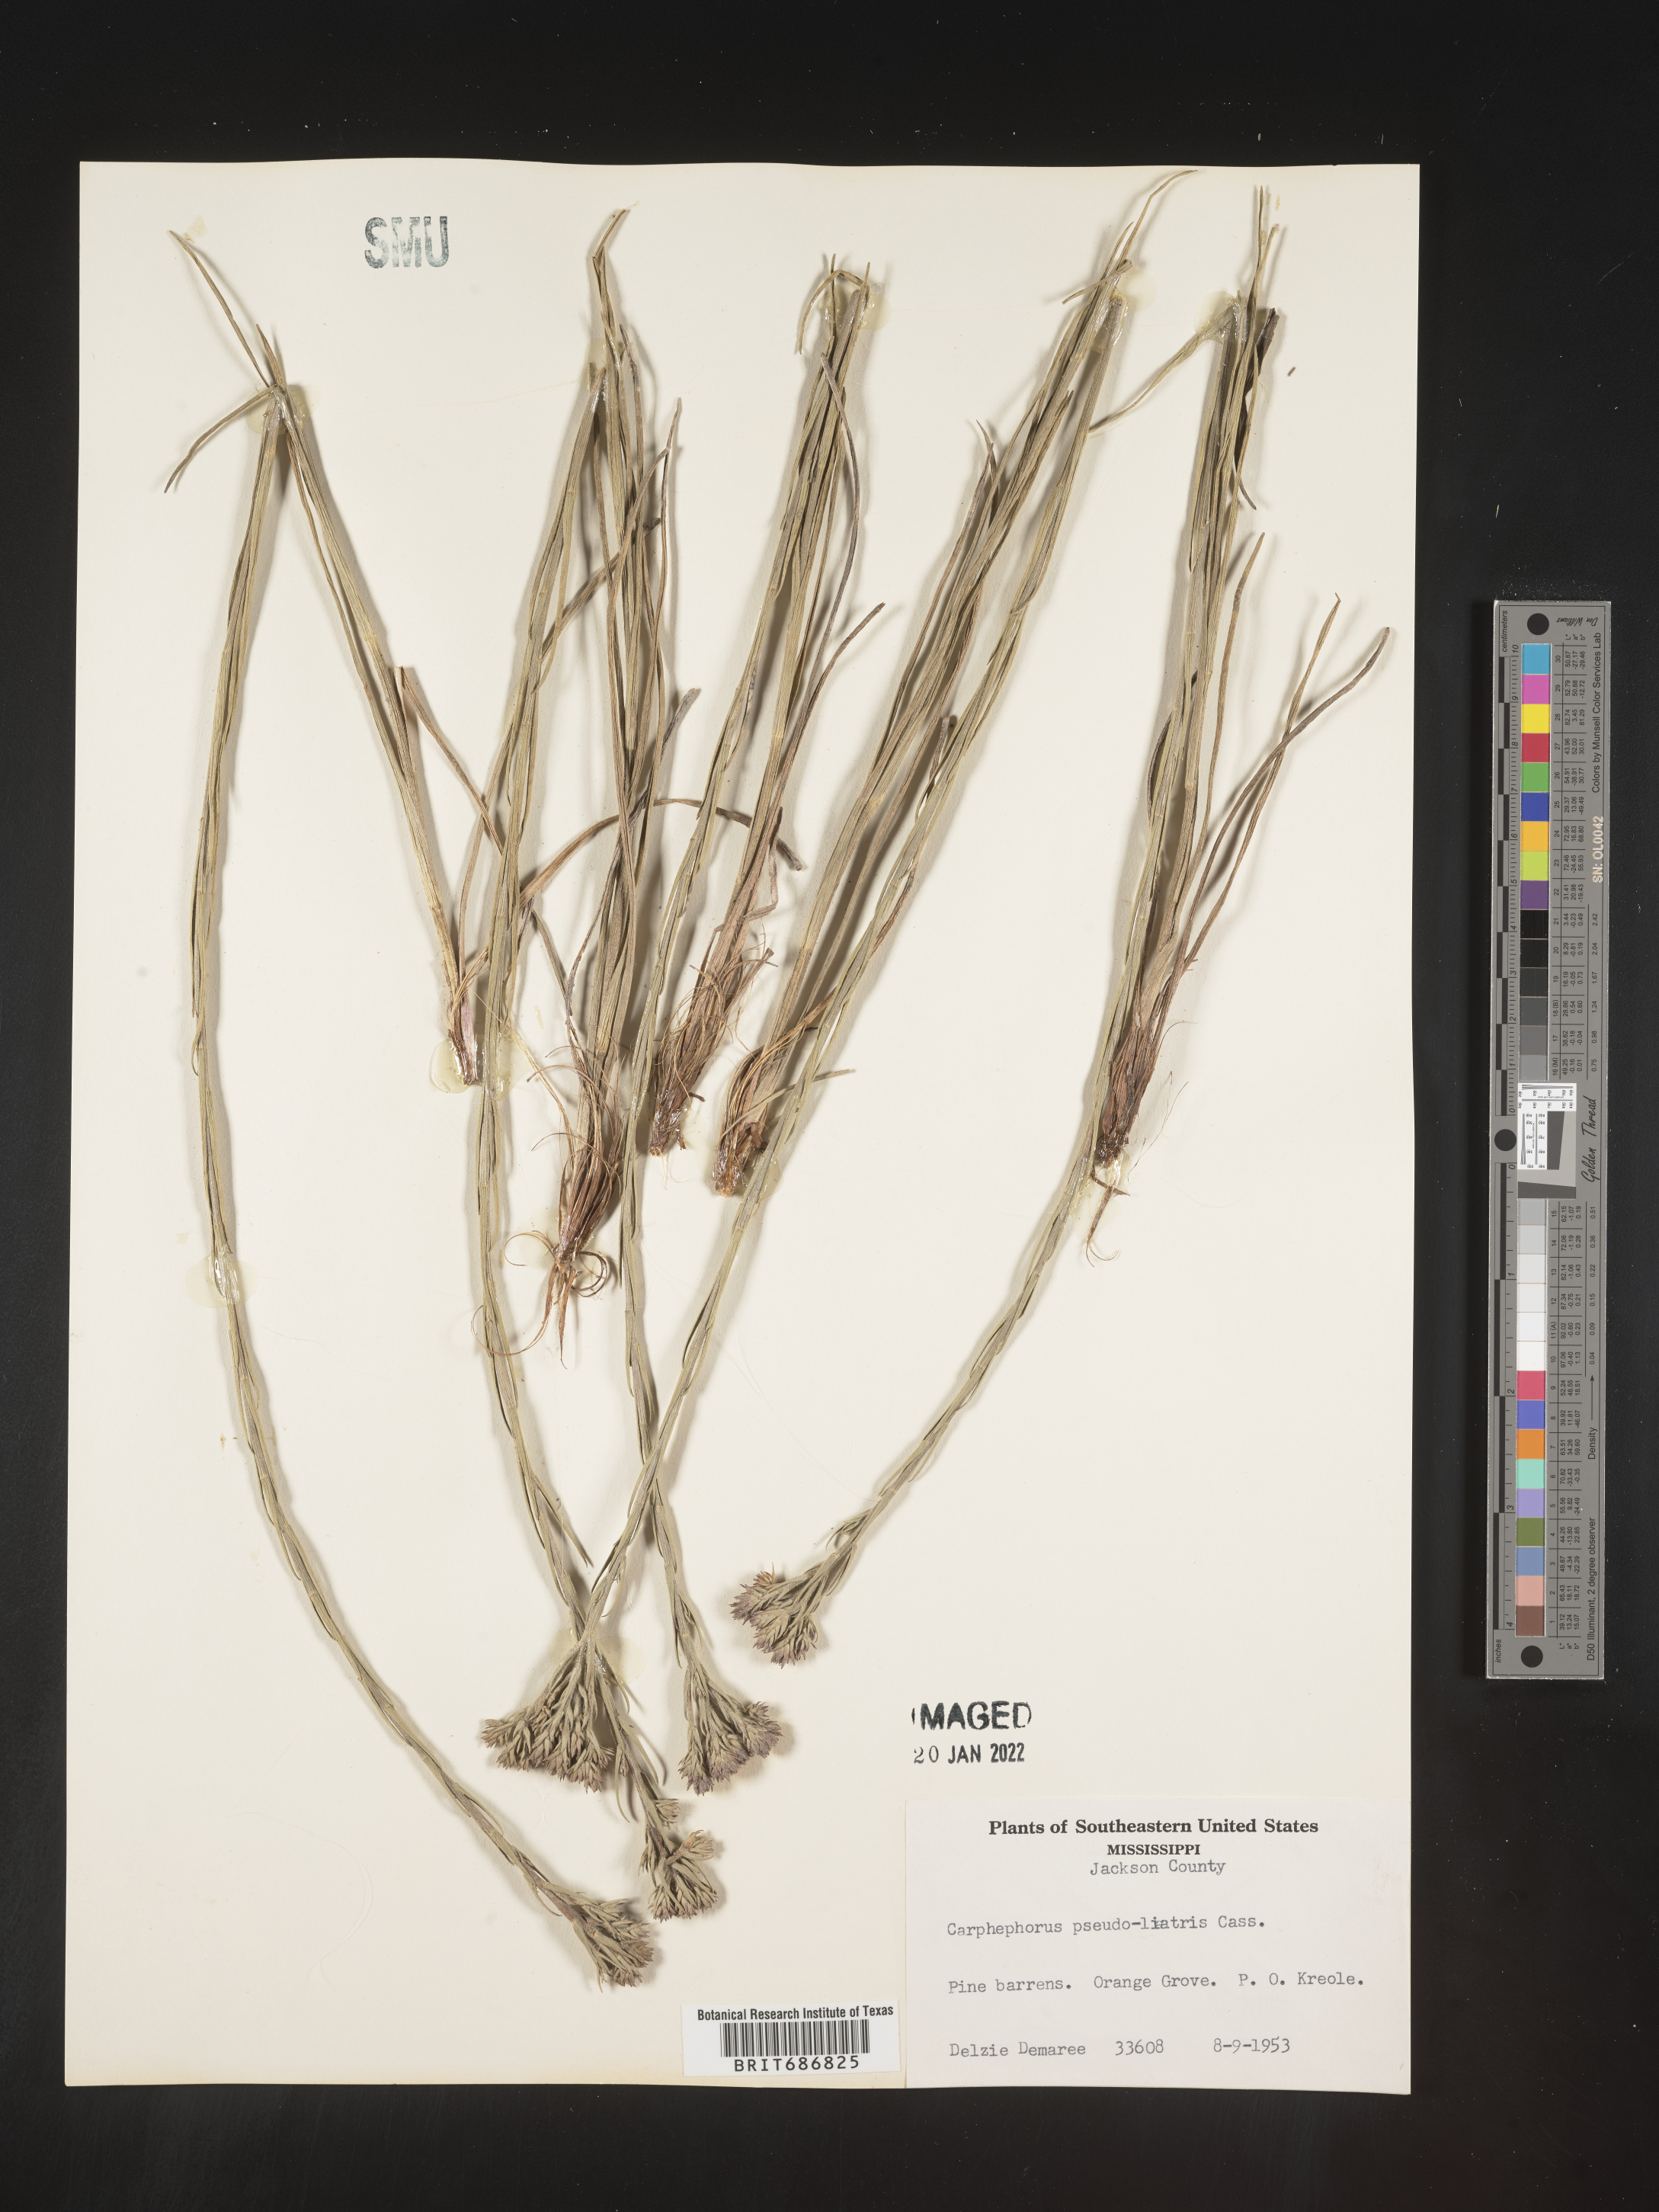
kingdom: Plantae
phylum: Tracheophyta
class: Magnoliopsida
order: Asterales
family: Asteraceae
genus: Carphephorus
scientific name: Carphephorus pseudoliatris
